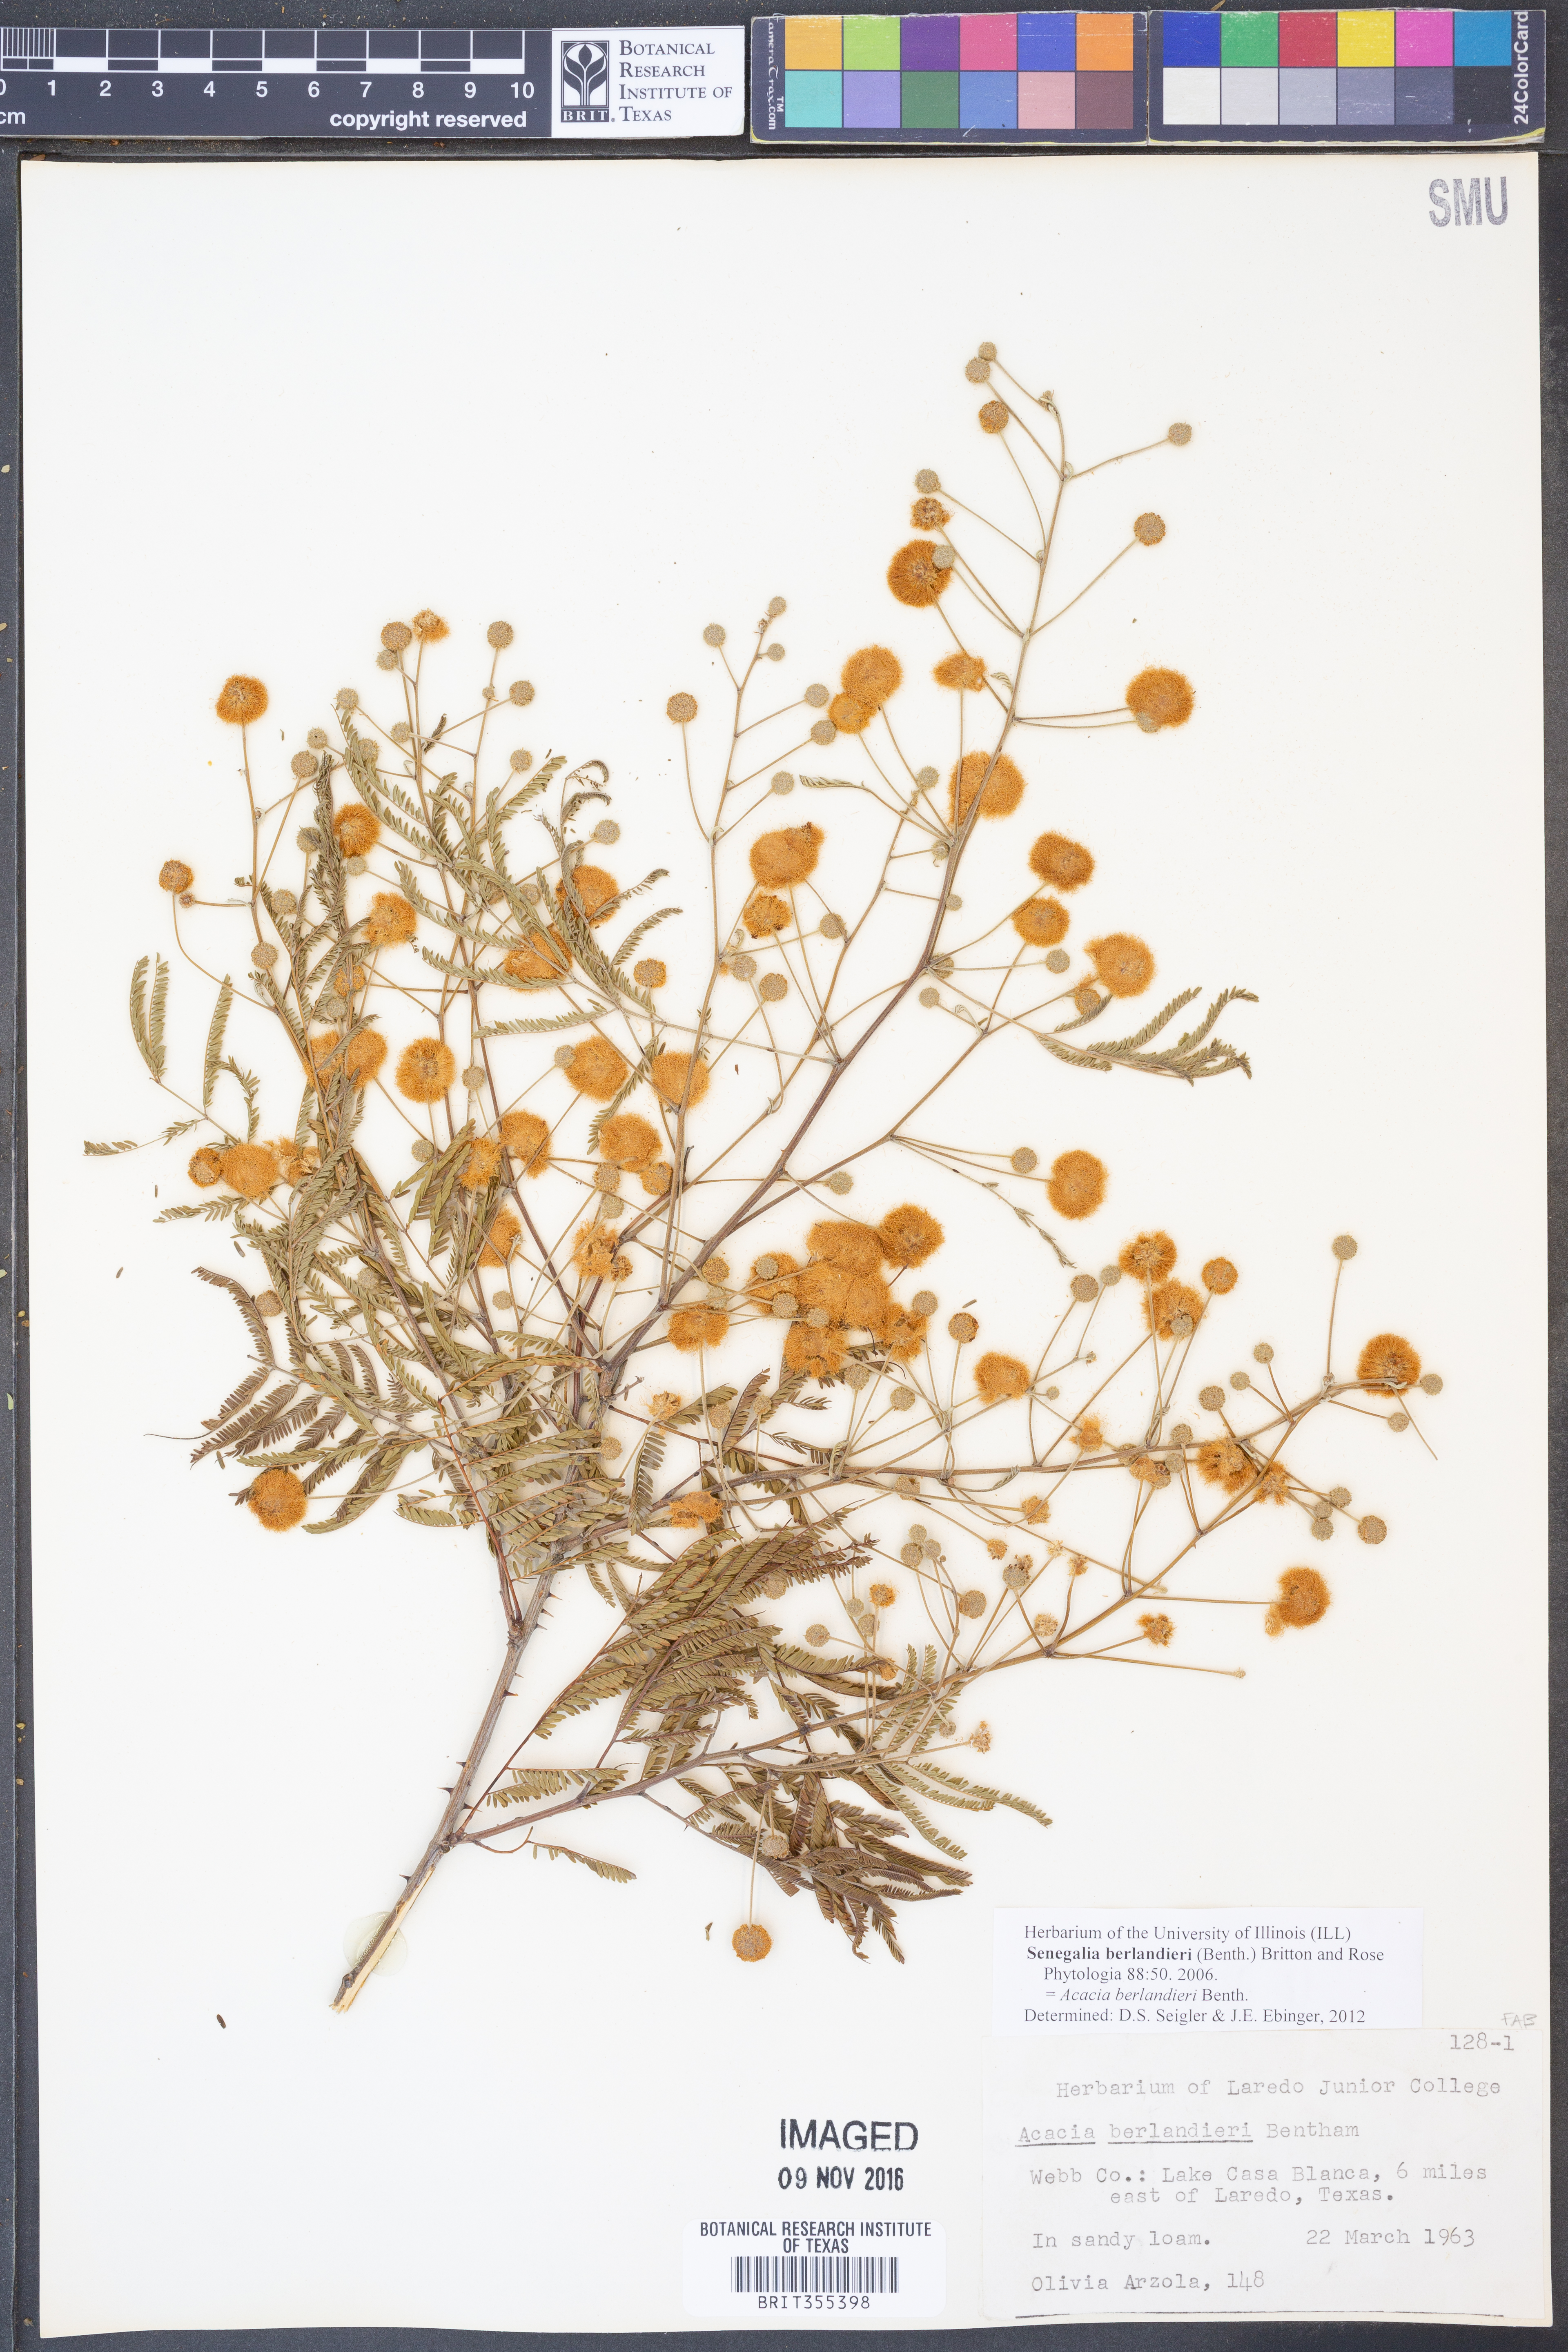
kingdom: Plantae
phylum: Tracheophyta
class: Magnoliopsida
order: Fabales
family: Fabaceae
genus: Senegalia
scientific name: Senegalia berlandieri
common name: Berlandier acacia
